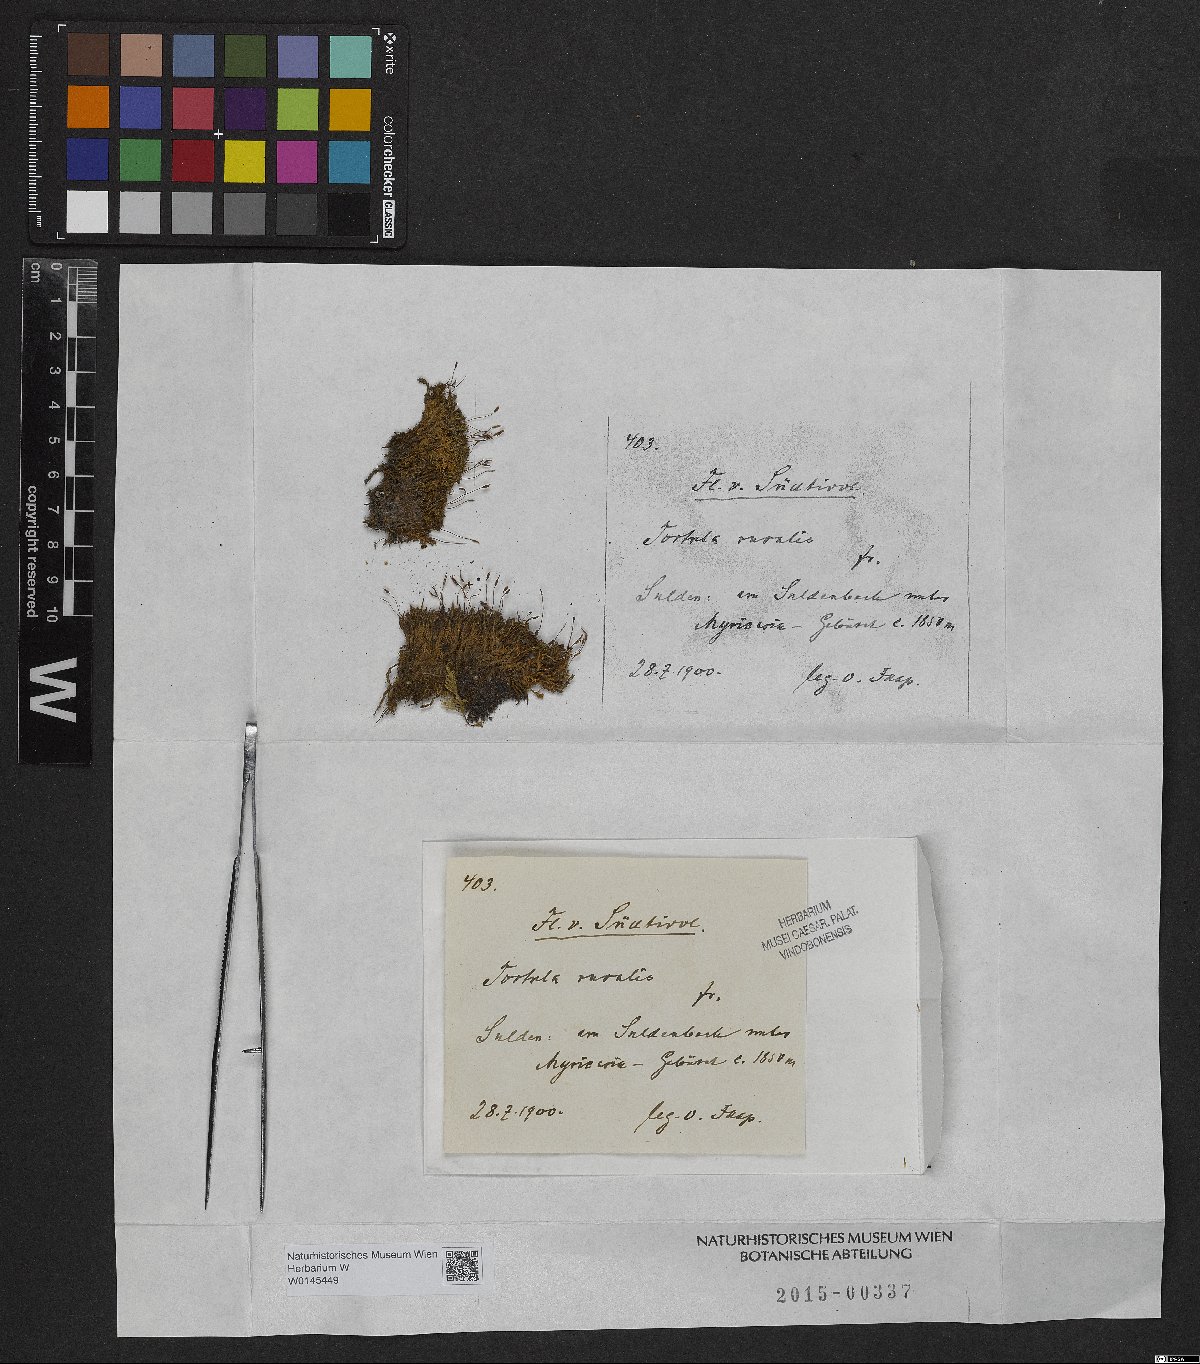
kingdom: Plantae
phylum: Bryophyta
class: Bryopsida
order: Pottiales
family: Pottiaceae
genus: Syntrichia
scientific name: Syntrichia ruralis
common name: Sidewalk screw moss
